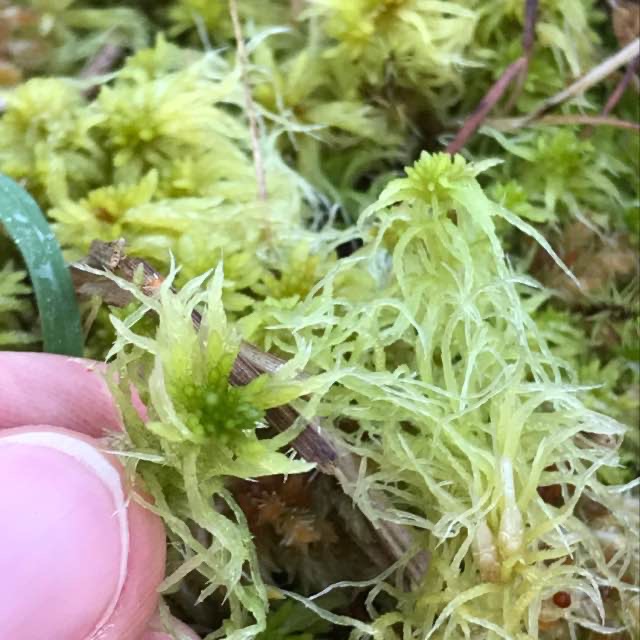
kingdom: Plantae
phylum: Bryophyta
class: Sphagnopsida
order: Sphagnales
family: Sphagnaceae
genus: Sphagnum
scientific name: Sphagnum fimbriatum
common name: Frynset tørvemos
